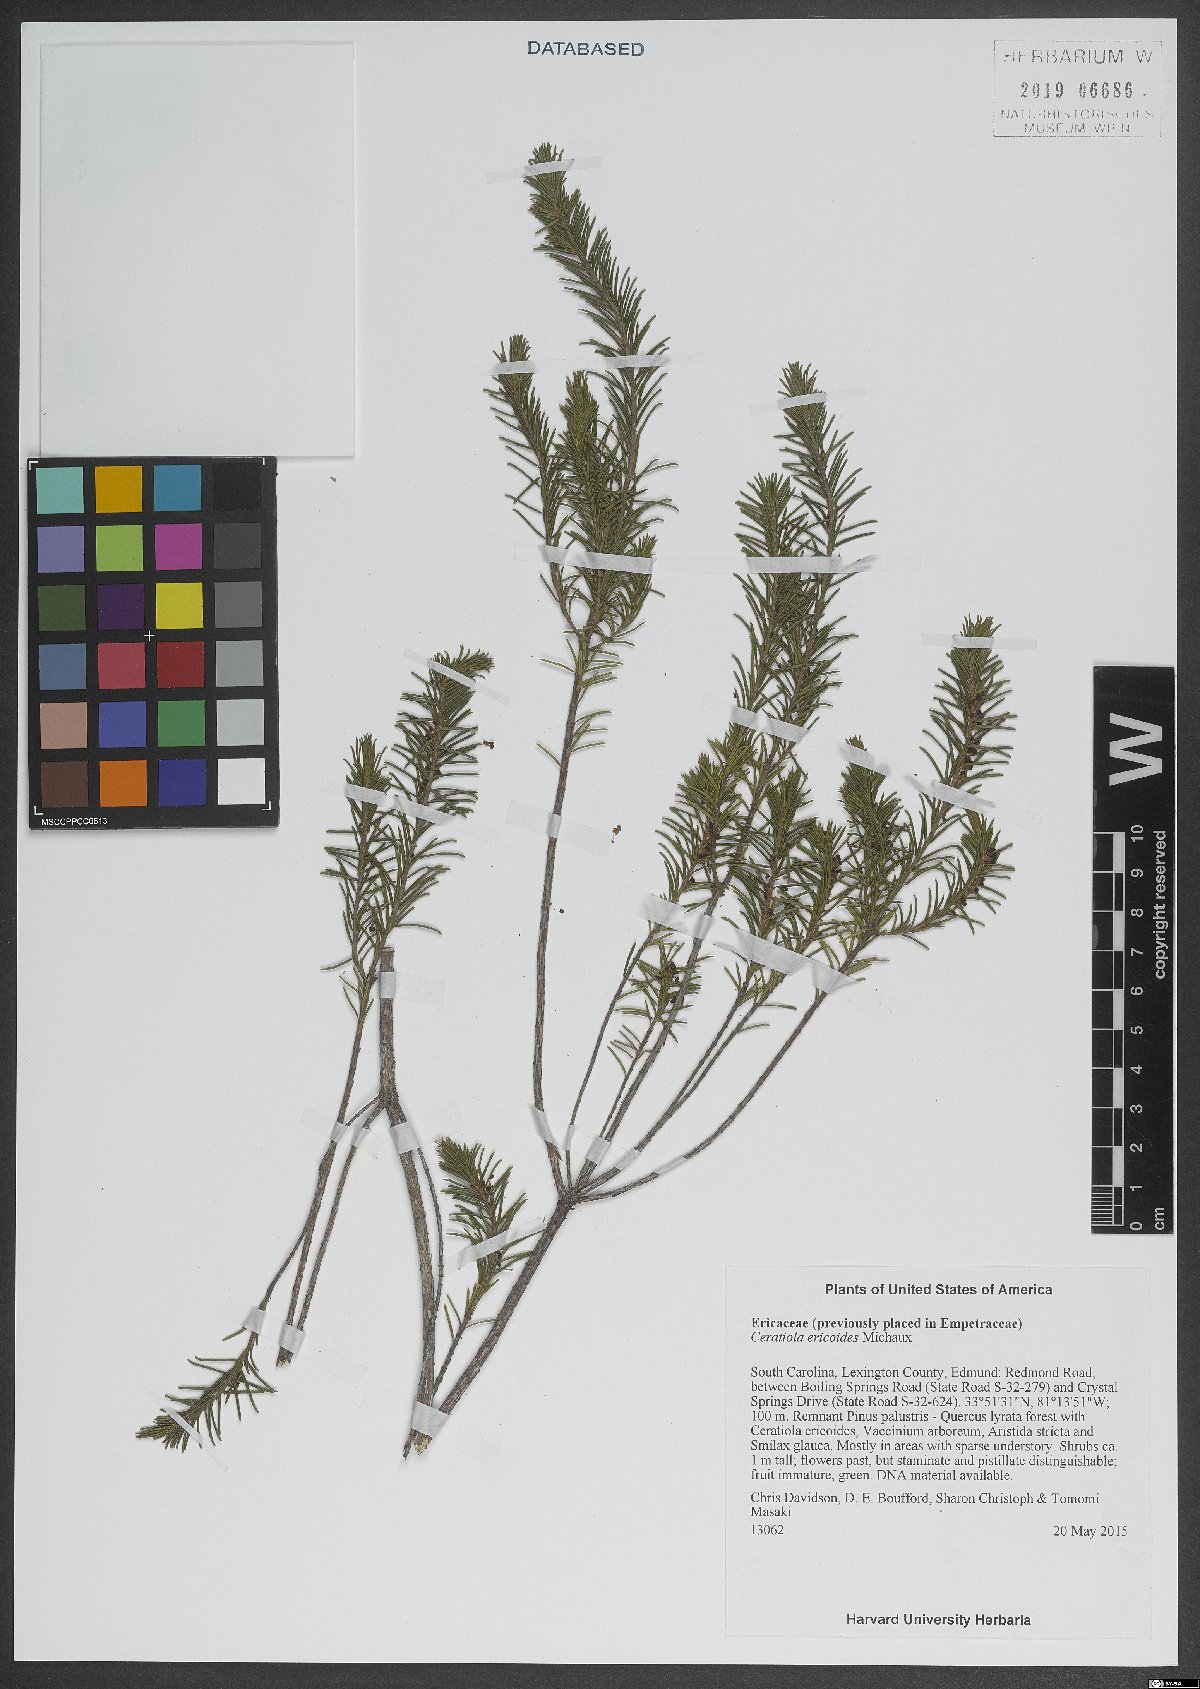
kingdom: Plantae
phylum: Tracheophyta
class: Magnoliopsida
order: Ericales
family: Ericaceae
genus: Ceratiola
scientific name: Ceratiola ericoides
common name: Sandhill-rosemary
